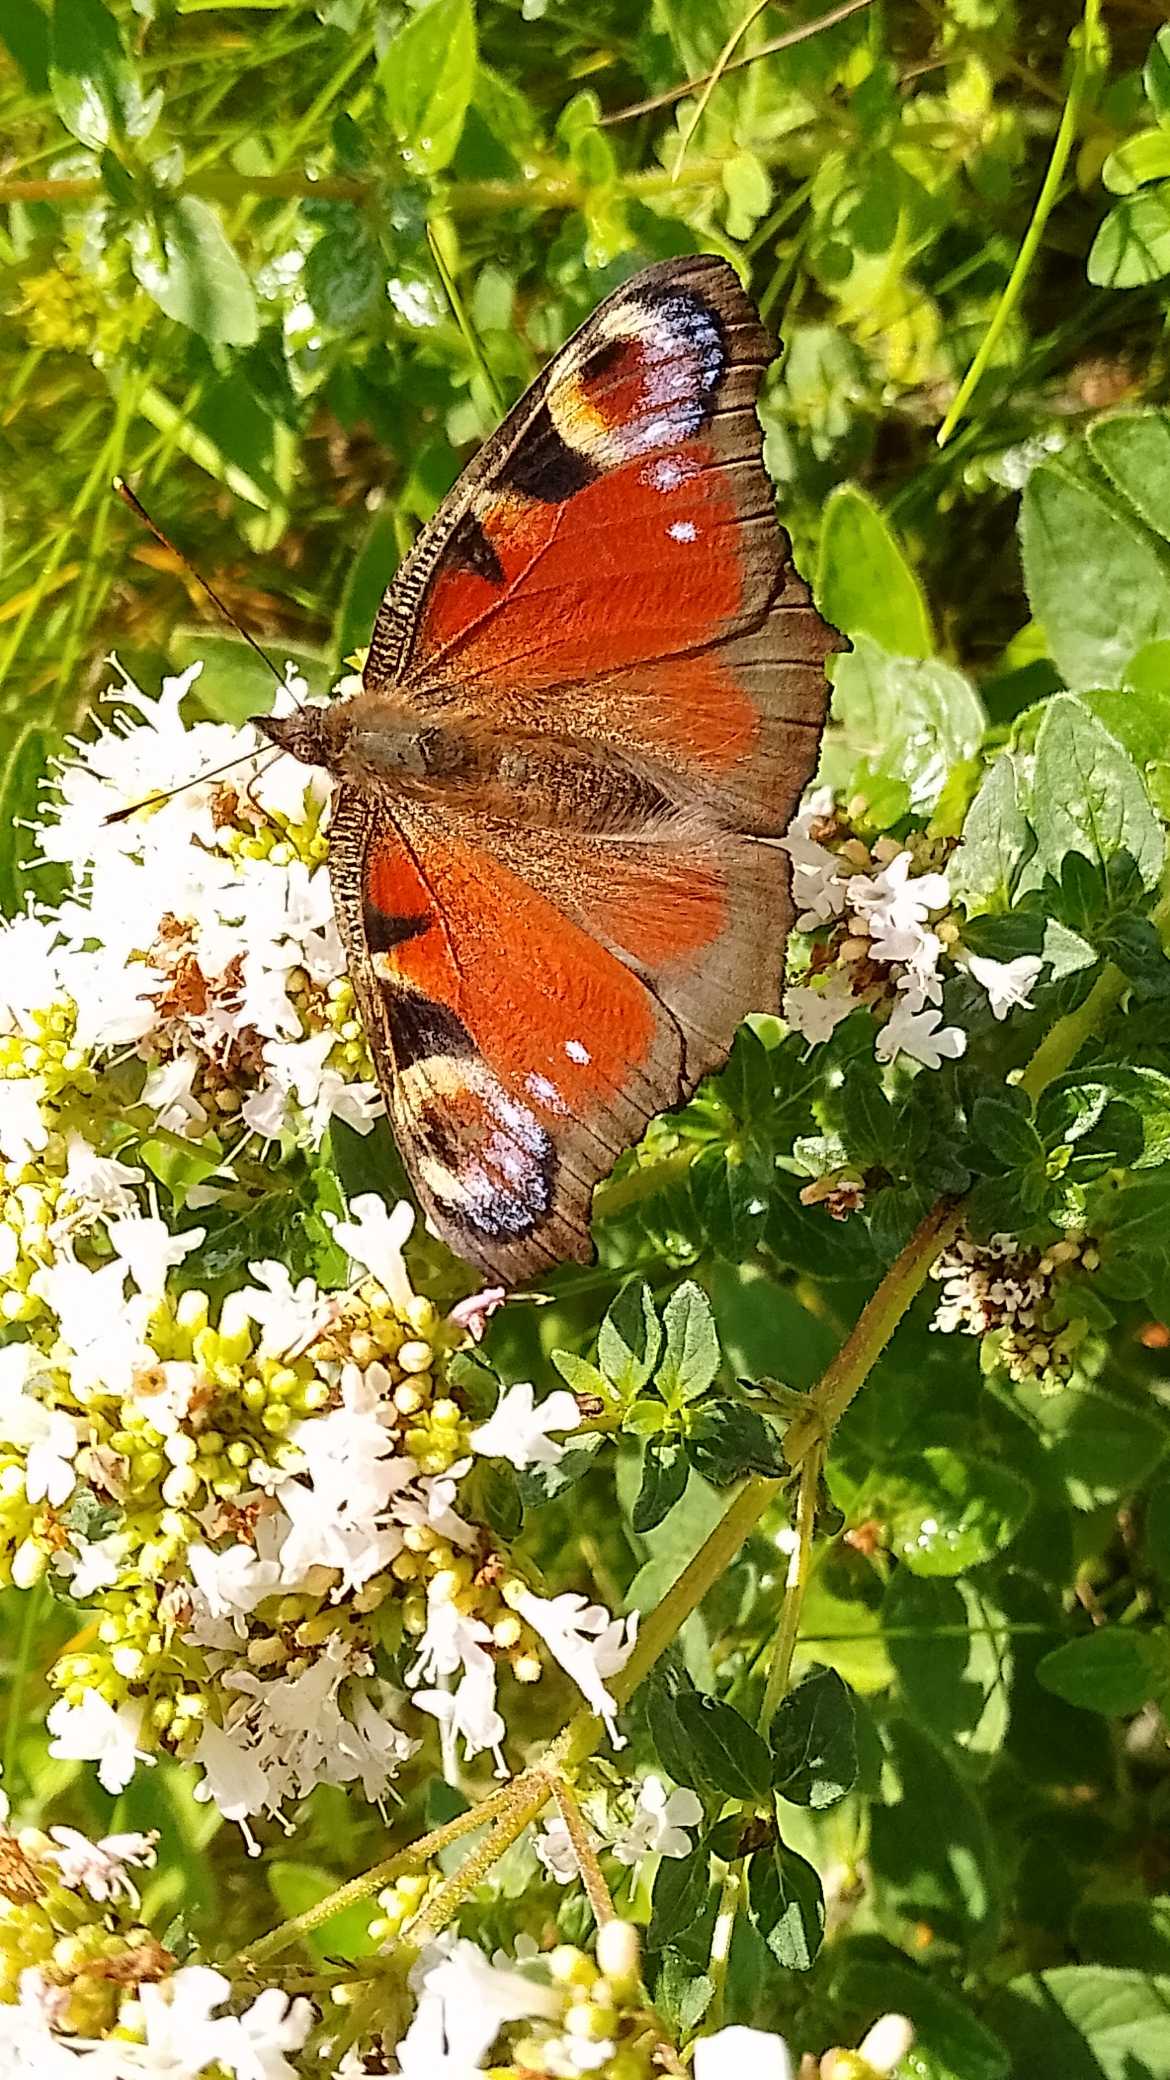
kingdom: Animalia
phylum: Arthropoda
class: Insecta
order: Lepidoptera
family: Nymphalidae
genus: Aglais
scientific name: Aglais io
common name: Dagpåfugleøje
